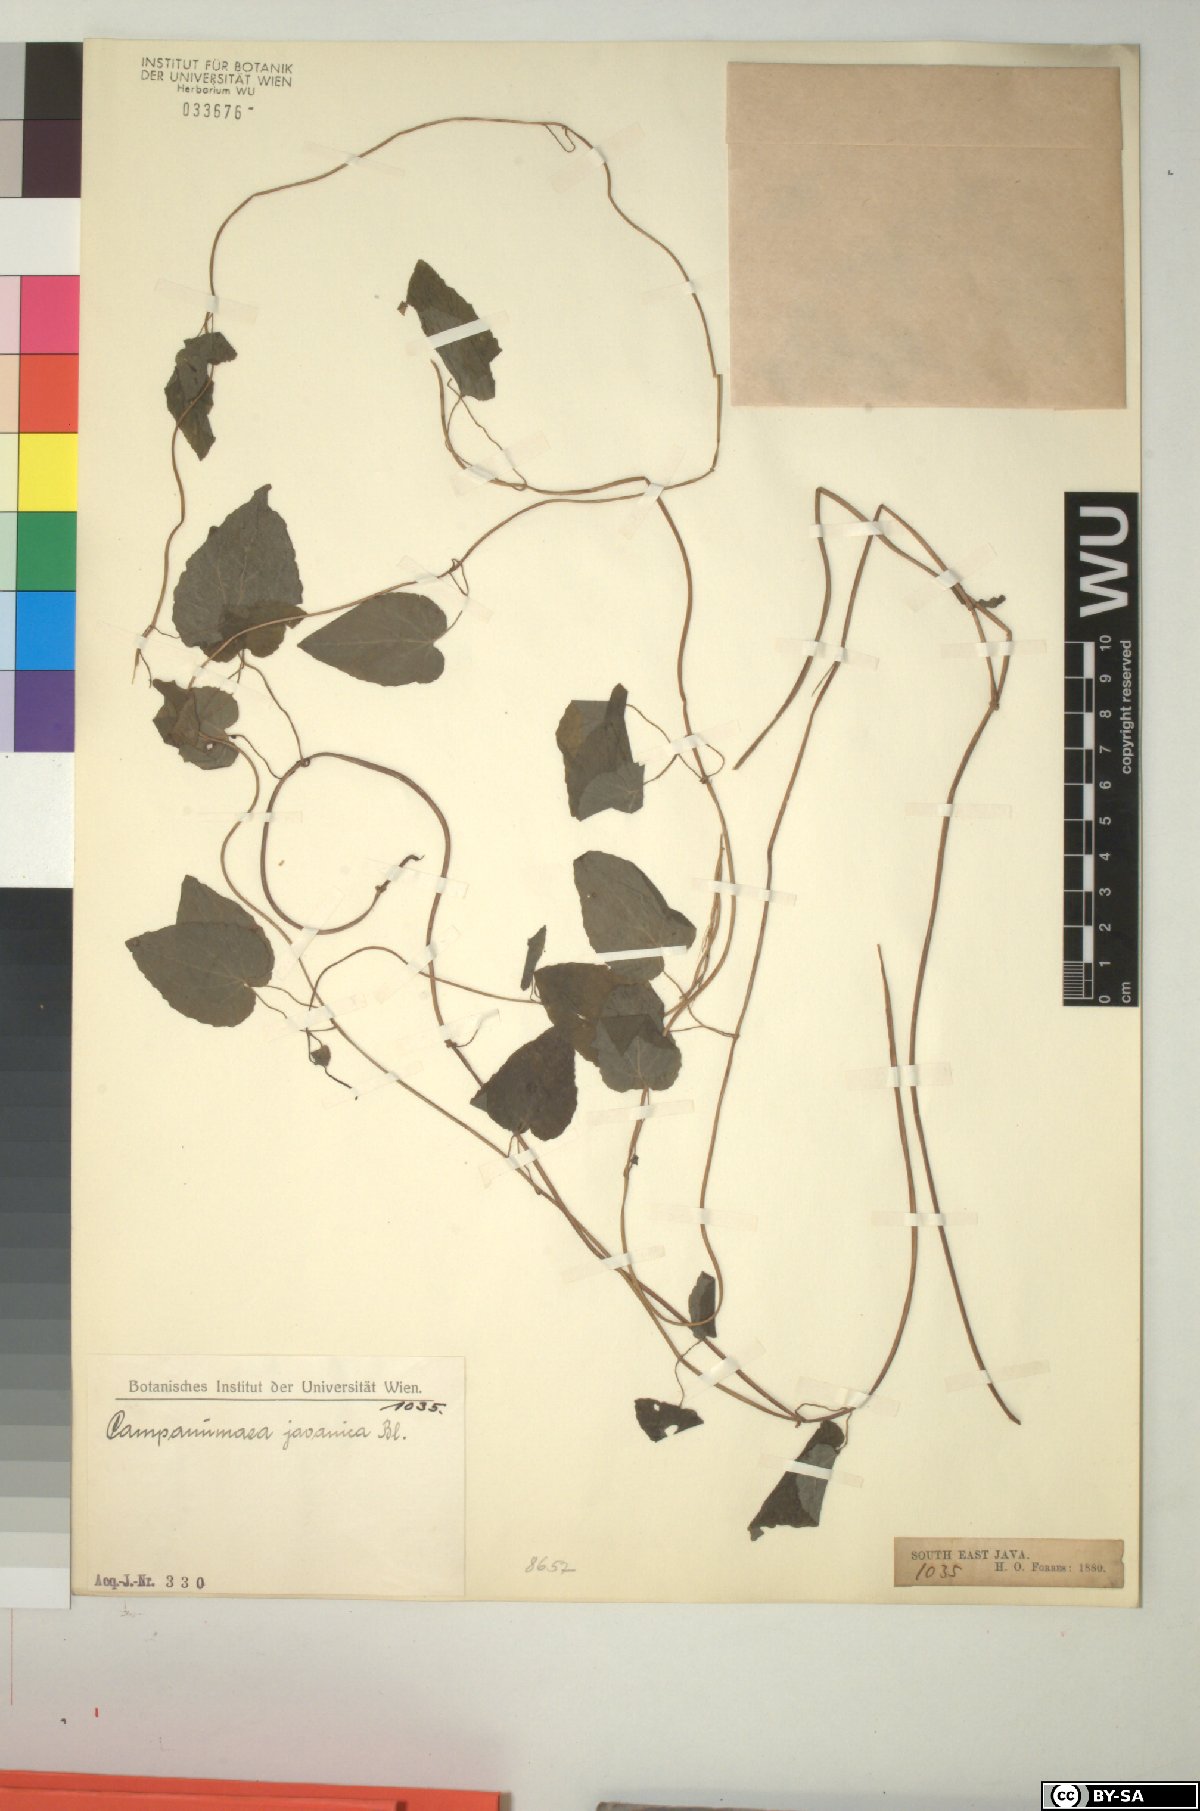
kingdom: Plantae
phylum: Tracheophyta
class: Magnoliopsida
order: Asterales
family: Campanulaceae
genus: Codonopsis
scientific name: Codonopsis javanica
